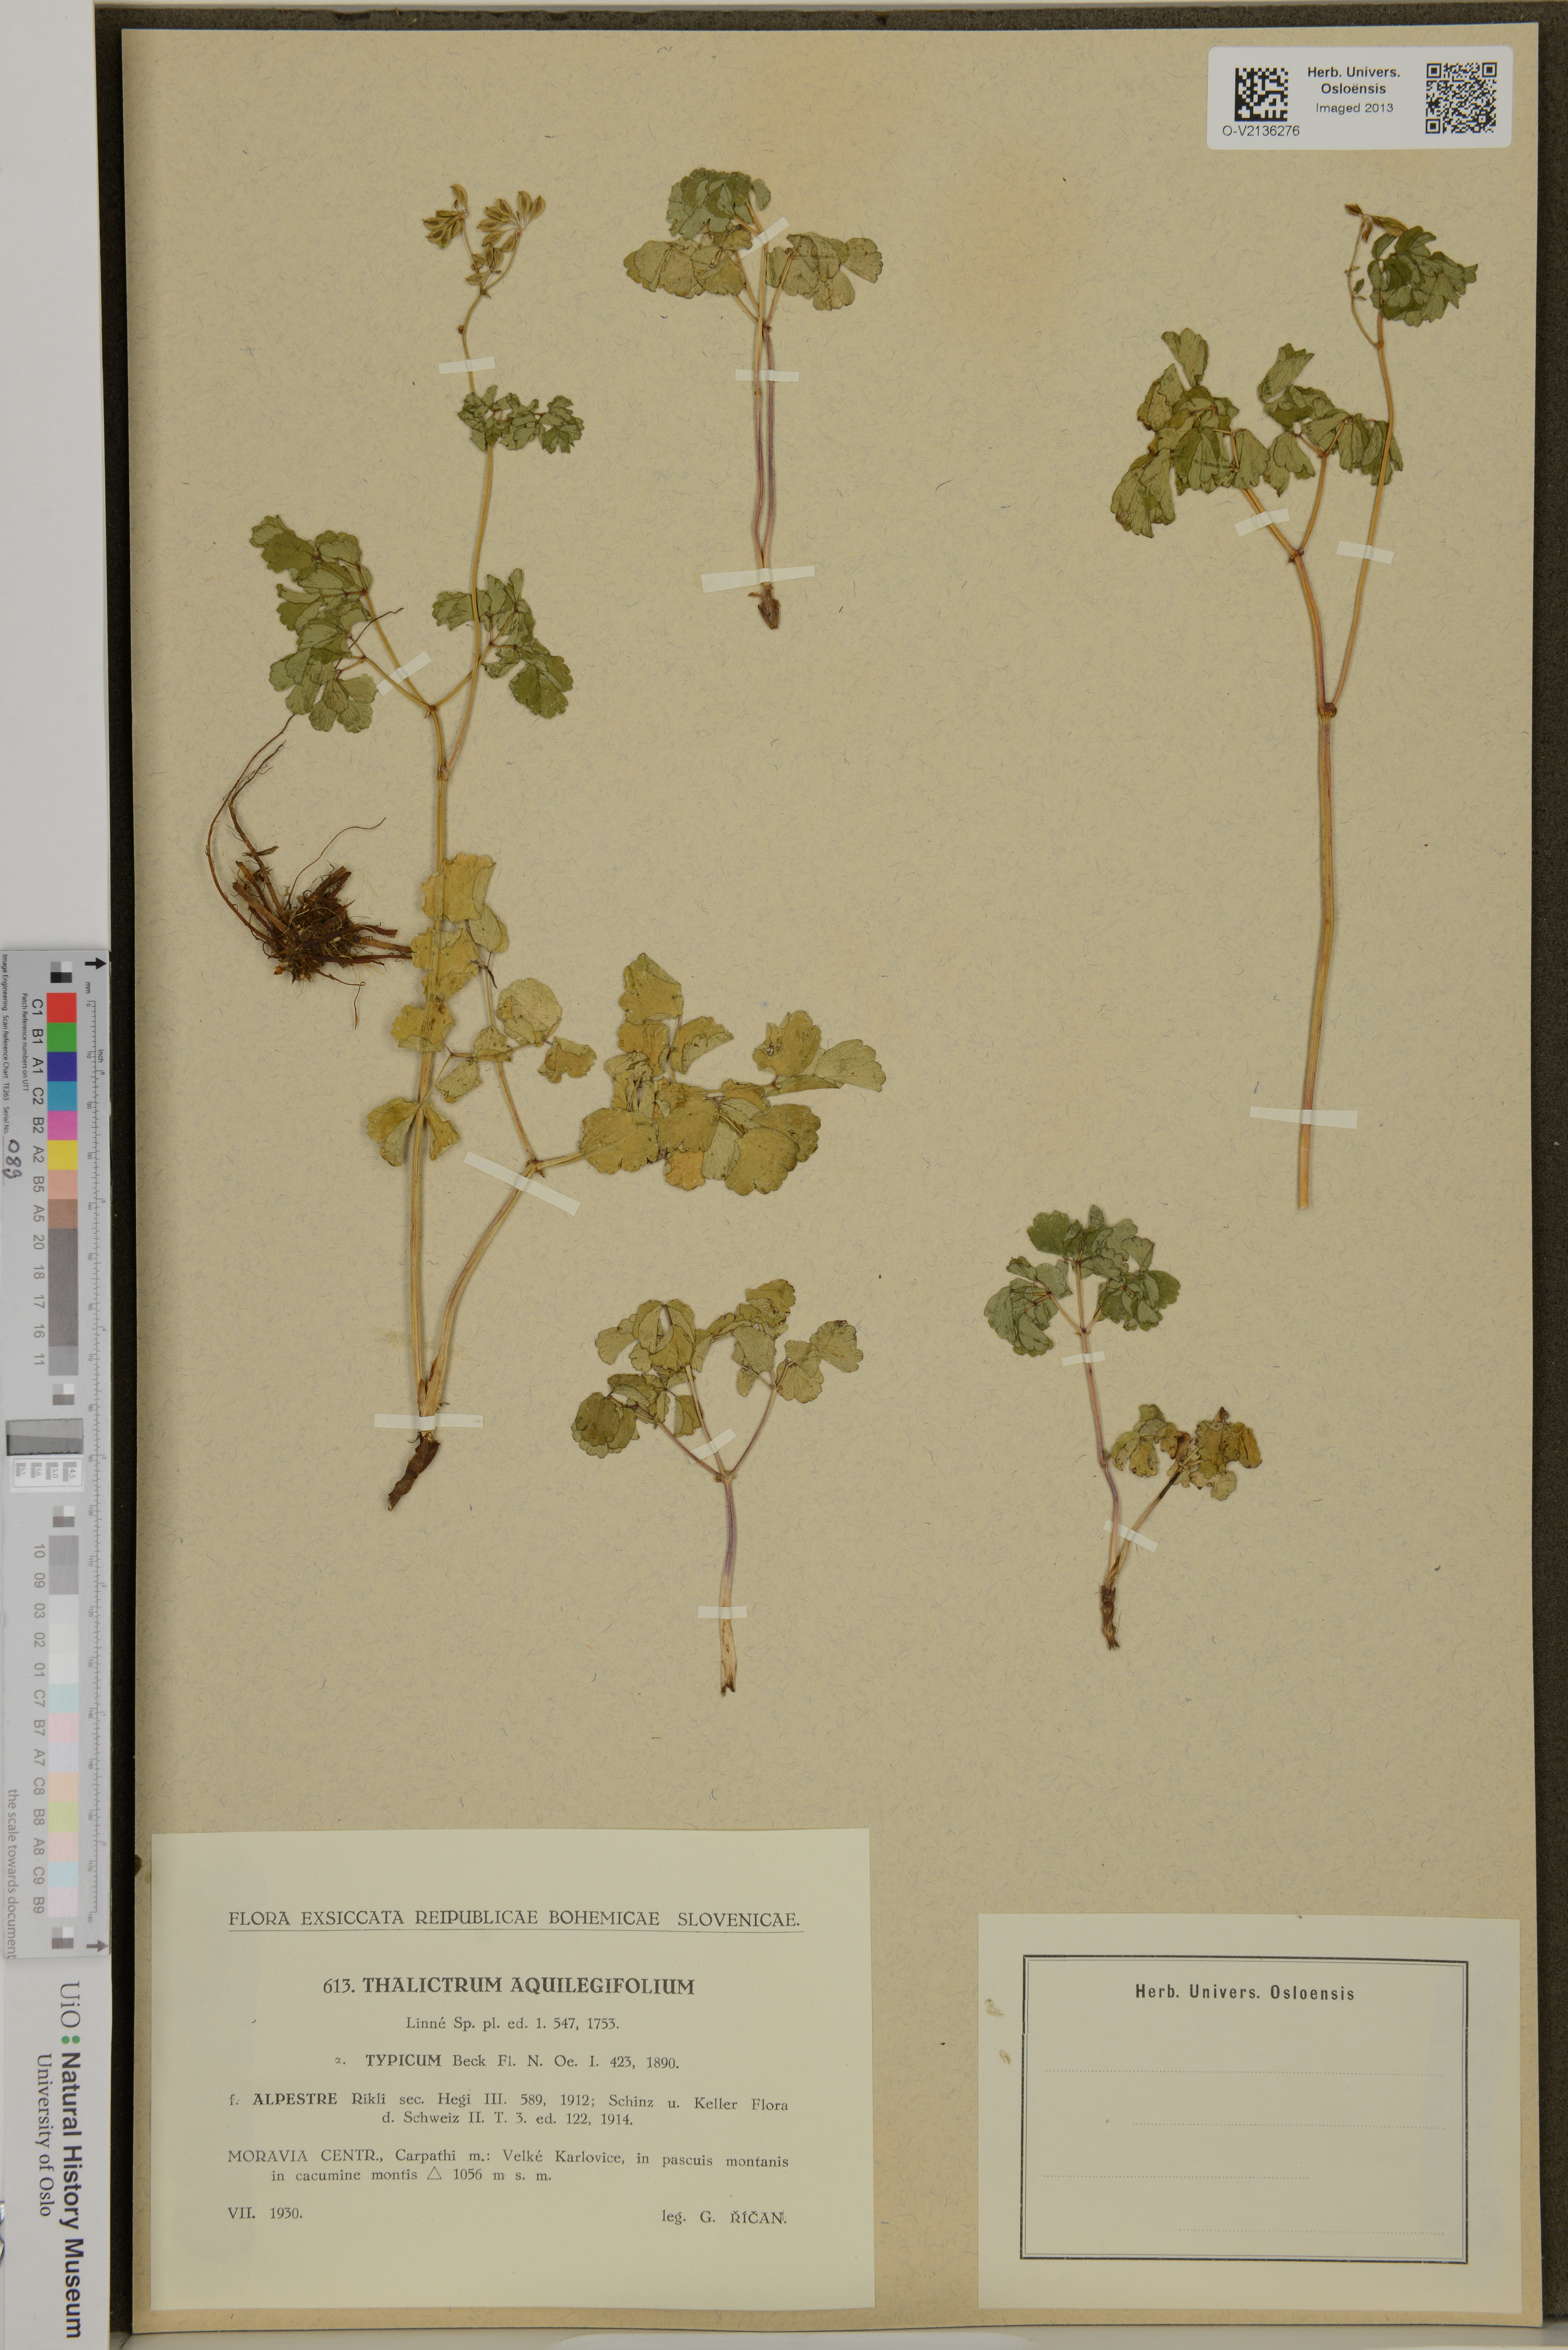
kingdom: Plantae
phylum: Tracheophyta
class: Magnoliopsida
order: Ranunculales
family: Ranunculaceae
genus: Thalictrum
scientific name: Thalictrum aquilegiifolium
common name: French meadow-rue
